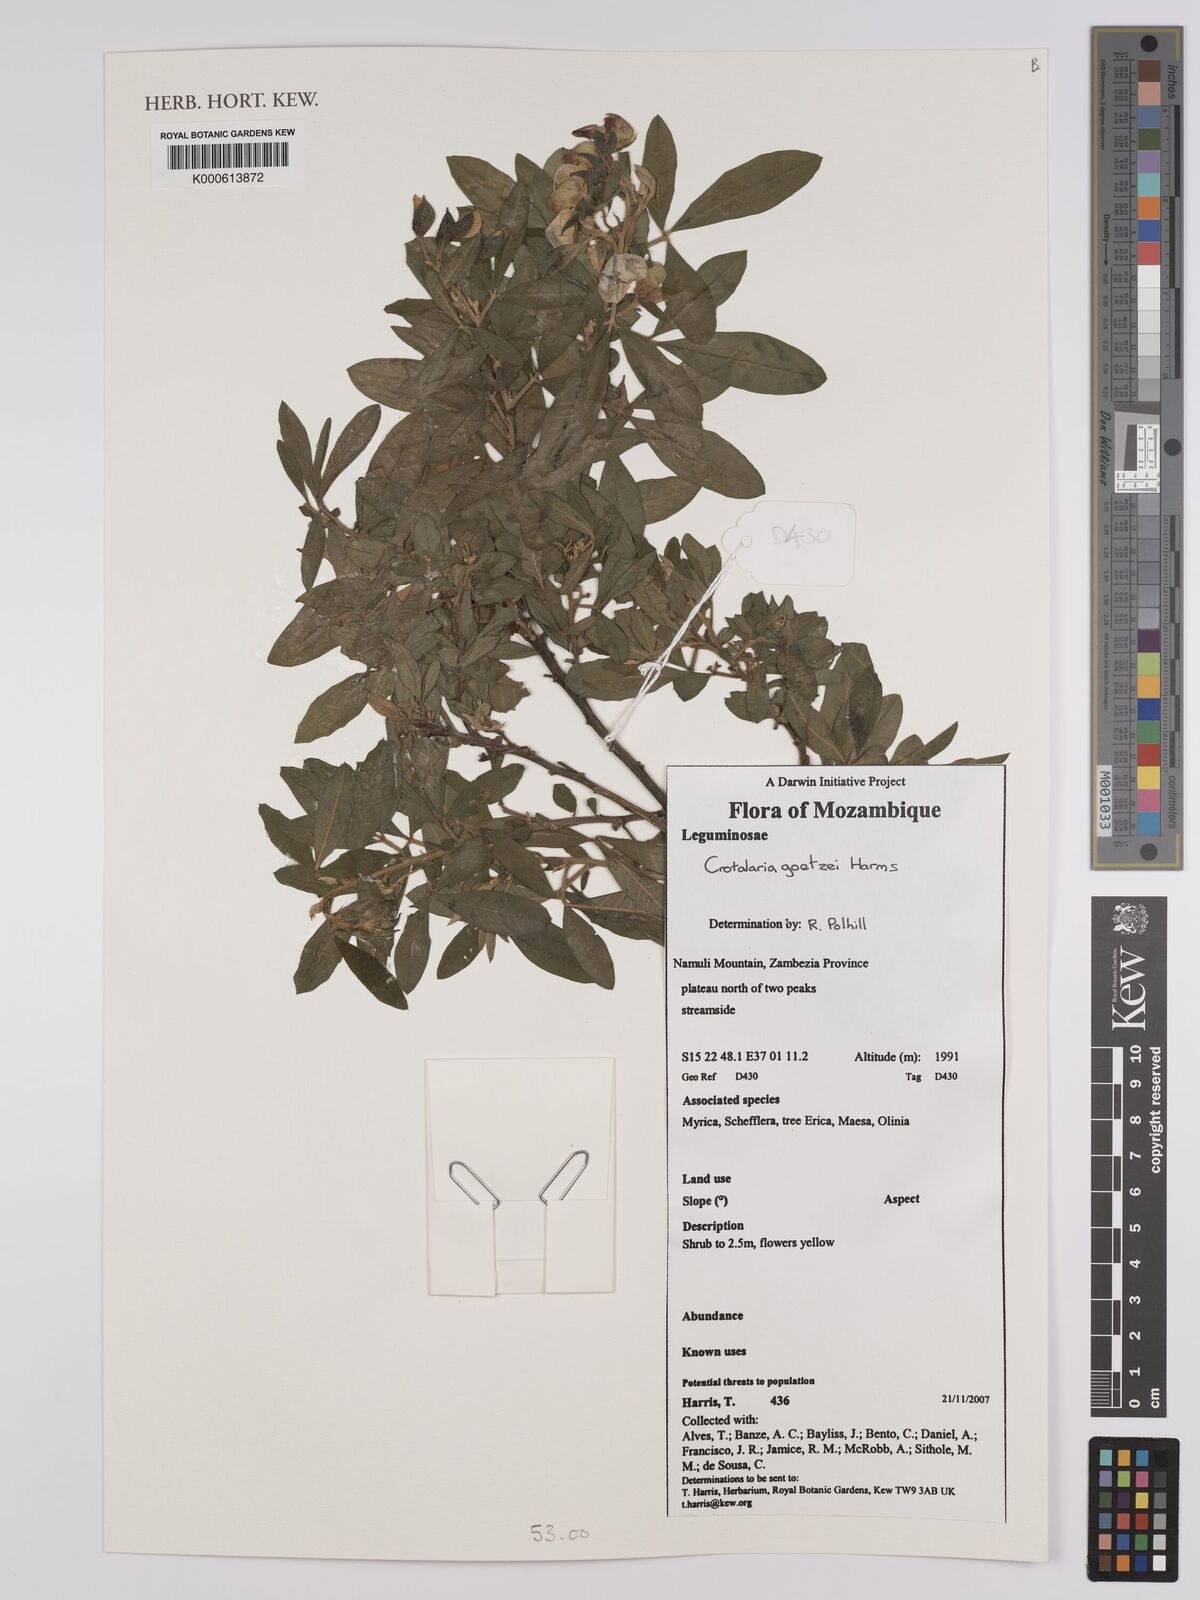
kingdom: Plantae
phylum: Tracheophyta
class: Magnoliopsida
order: Fabales
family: Fabaceae
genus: Crotalaria
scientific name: Crotalaria goetzei
